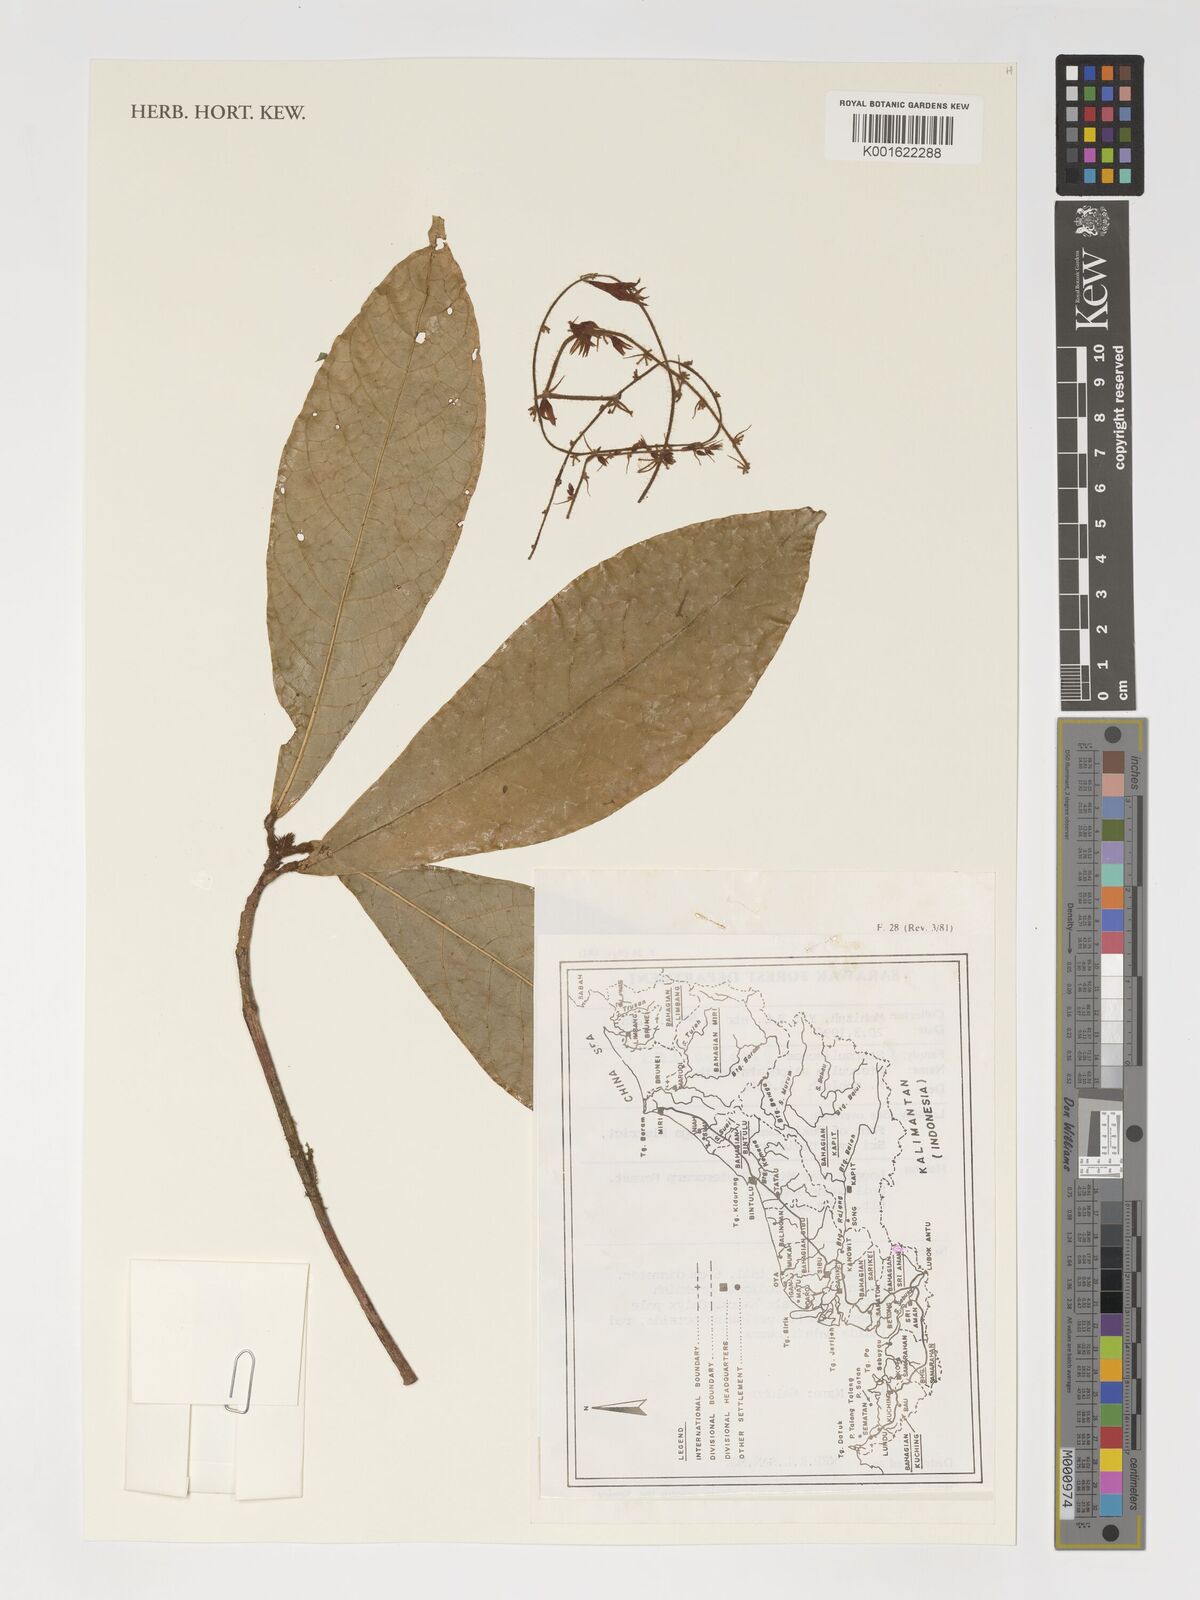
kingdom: Plantae
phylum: Tracheophyta
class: Magnoliopsida
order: Malvales
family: Malvaceae
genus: Sterculia
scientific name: Sterculia stipulata
